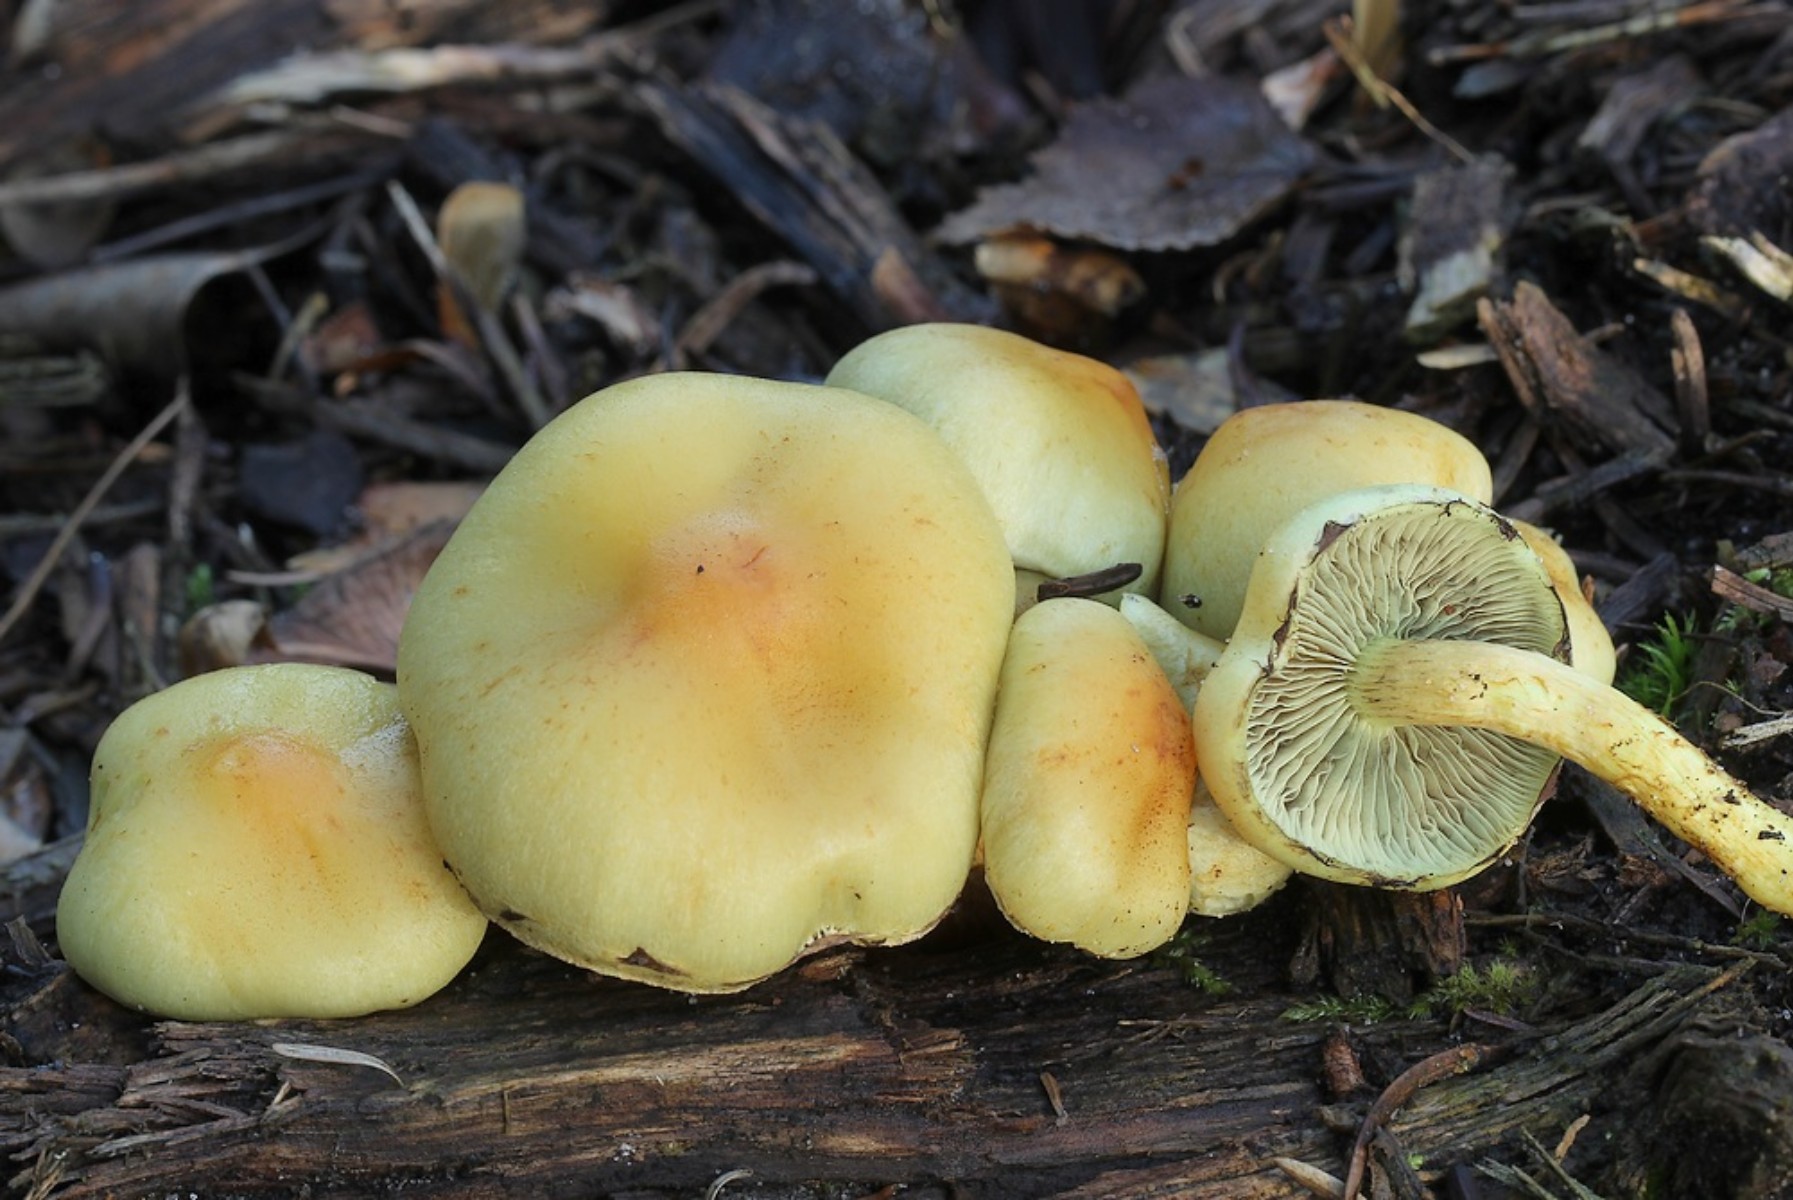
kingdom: Fungi
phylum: Basidiomycota
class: Agaricomycetes
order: Agaricales
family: Strophariaceae
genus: Hypholoma
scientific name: Hypholoma fasciculare
